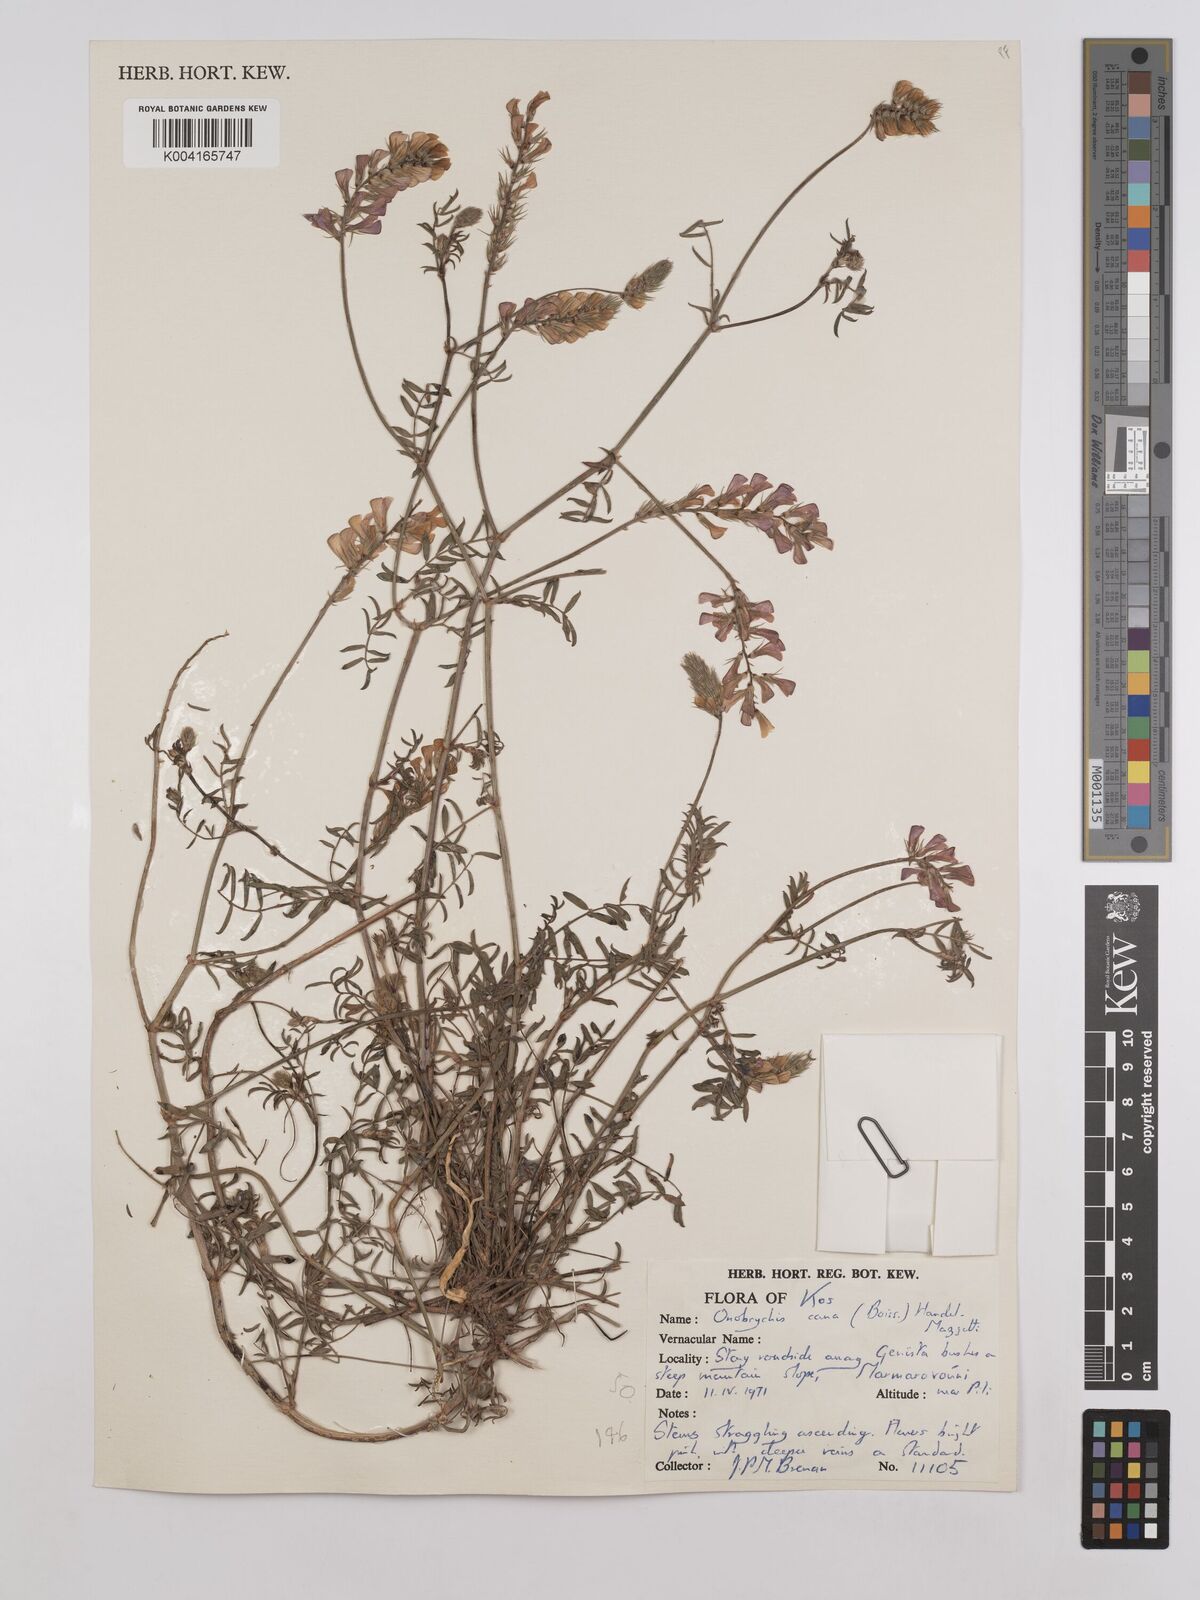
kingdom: Plantae
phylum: Tracheophyta
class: Magnoliopsida
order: Fabales
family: Fabaceae
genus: Onobrychis
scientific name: Onobrychis arenaria
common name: Sand esparcet
